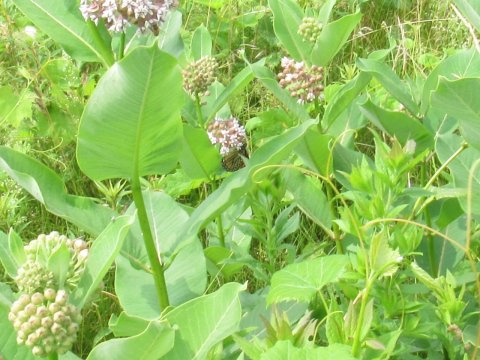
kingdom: Animalia
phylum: Arthropoda
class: Insecta
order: Lepidoptera
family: Nymphalidae
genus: Danaus
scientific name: Danaus plexippus
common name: Monarch
